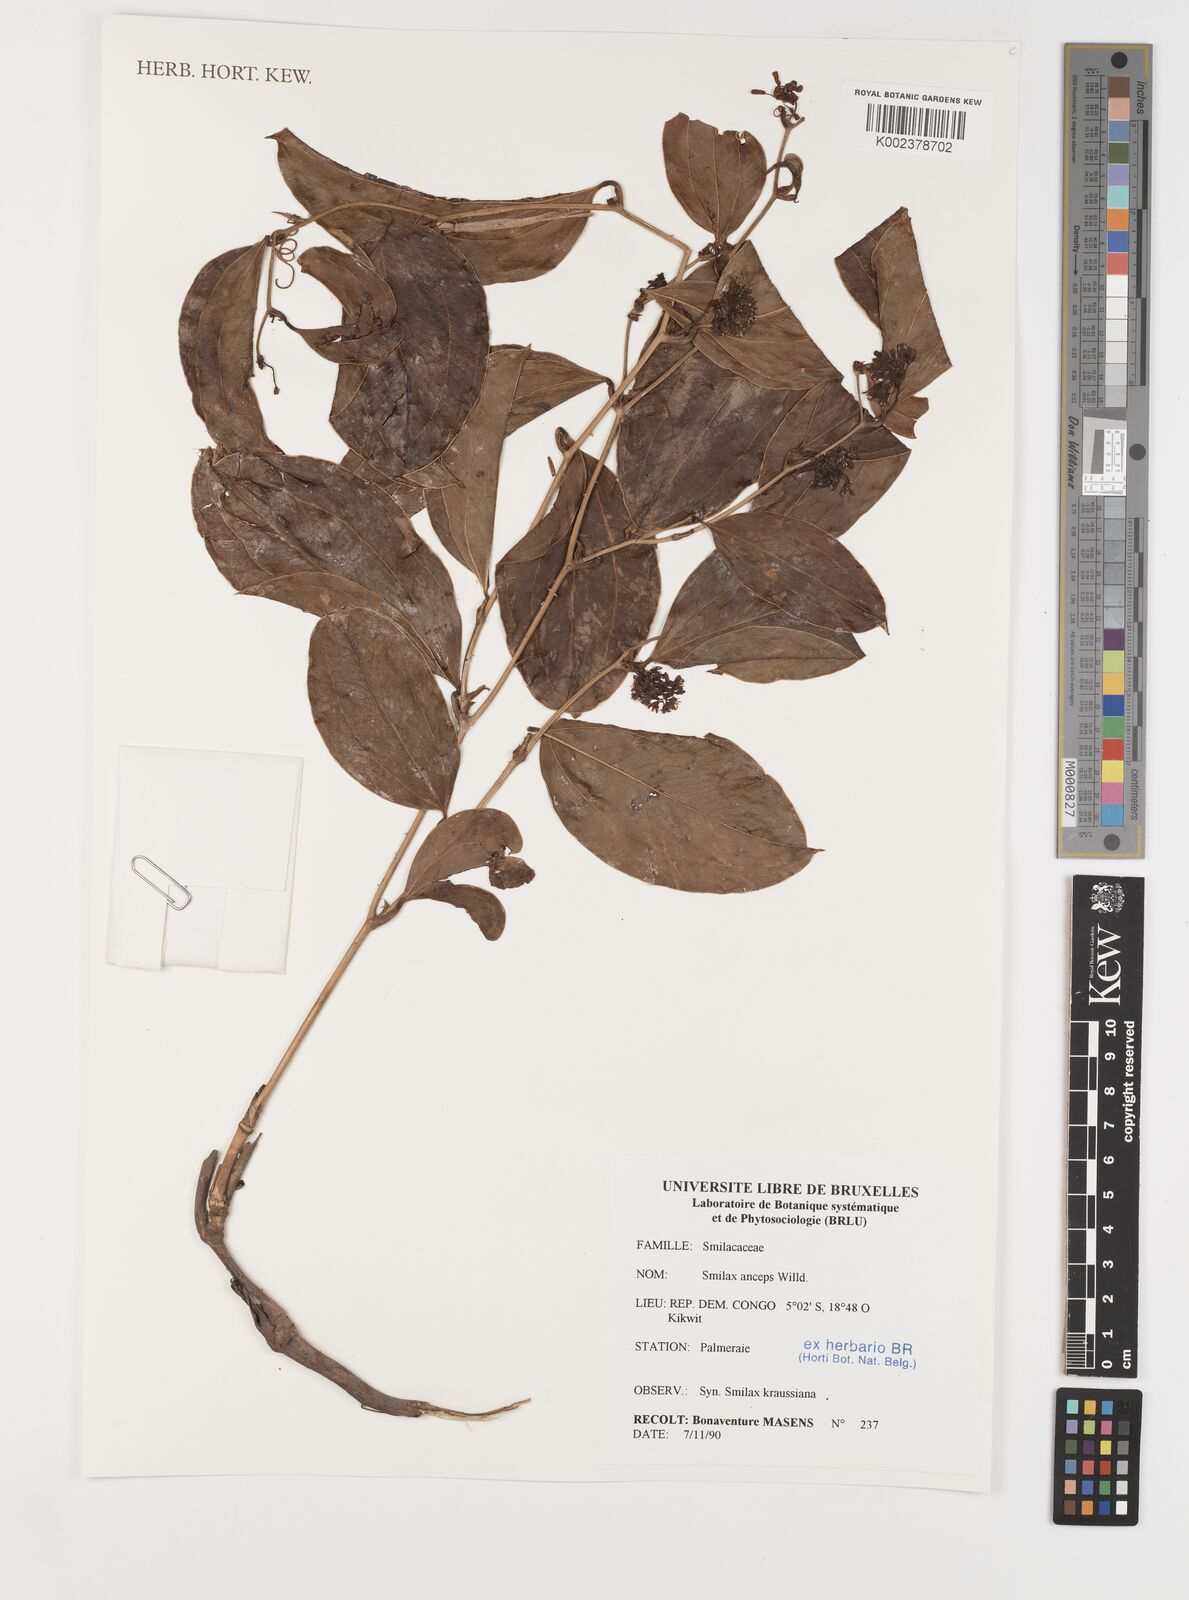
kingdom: Plantae
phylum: Tracheophyta
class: Liliopsida
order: Liliales
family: Smilacaceae
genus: Smilax
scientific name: Smilax anceps
